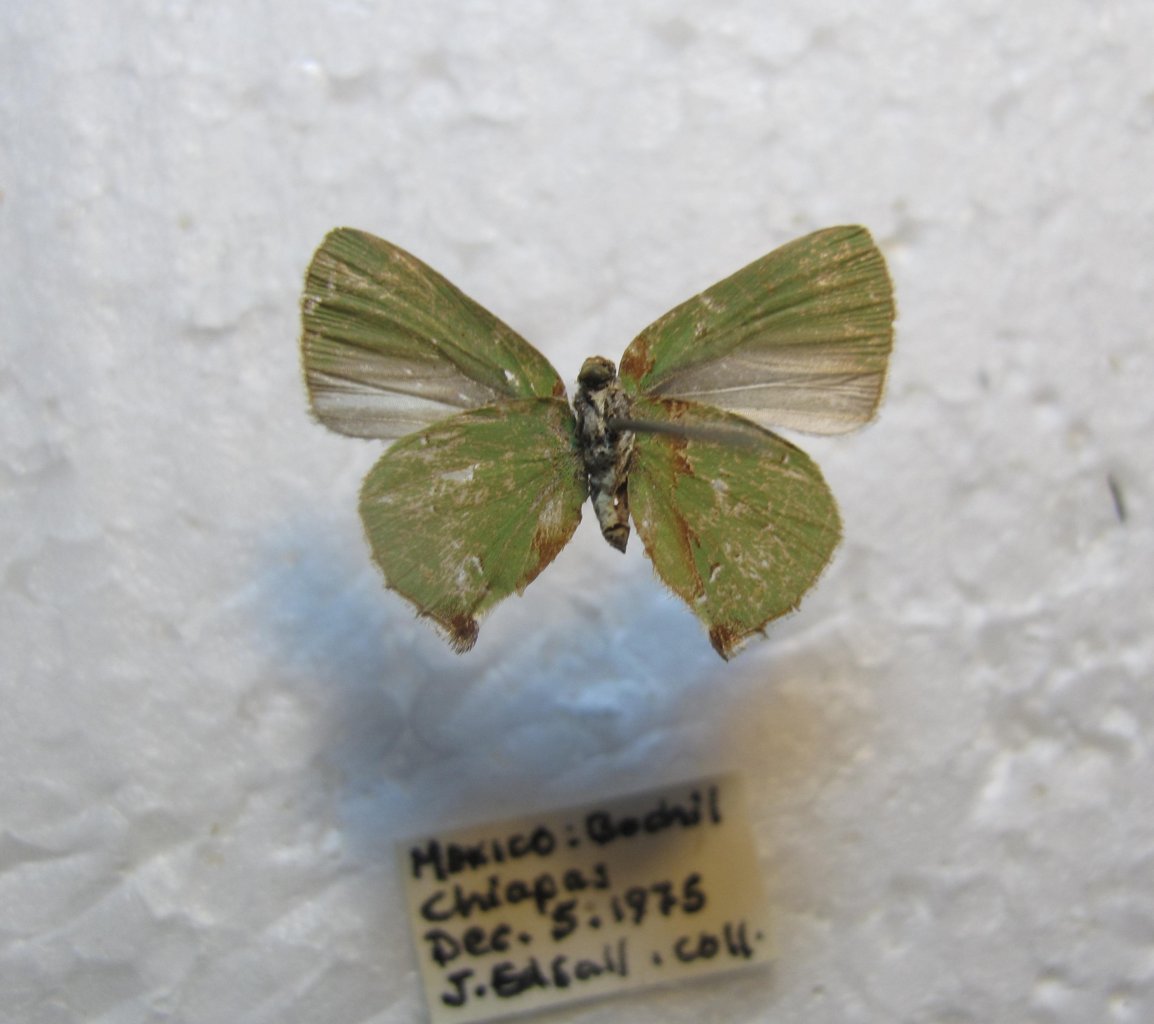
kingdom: Animalia
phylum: Arthropoda
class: Insecta
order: Lepidoptera
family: Lycaenidae
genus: Thecla
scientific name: Thecla goodsoni
